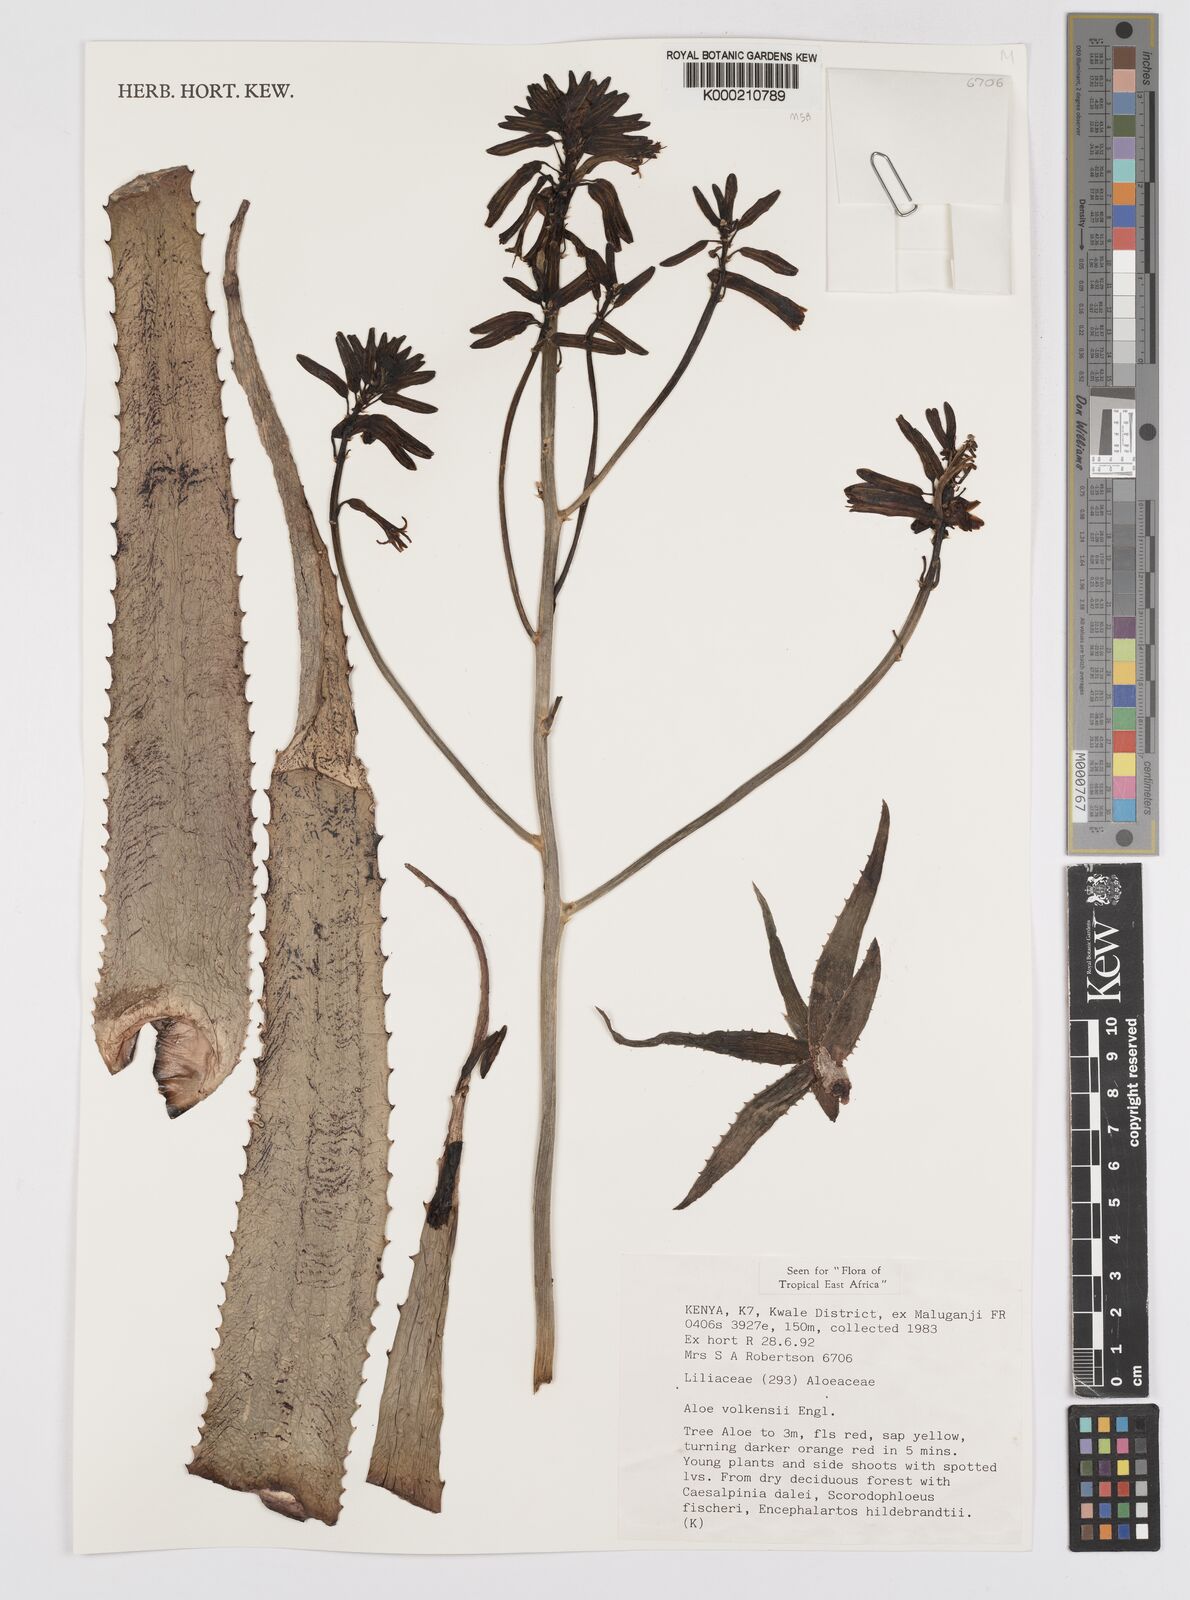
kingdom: Plantae
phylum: Tracheophyta
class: Liliopsida
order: Asparagales
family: Asphodelaceae
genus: Aloe
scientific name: Aloe volkensii
